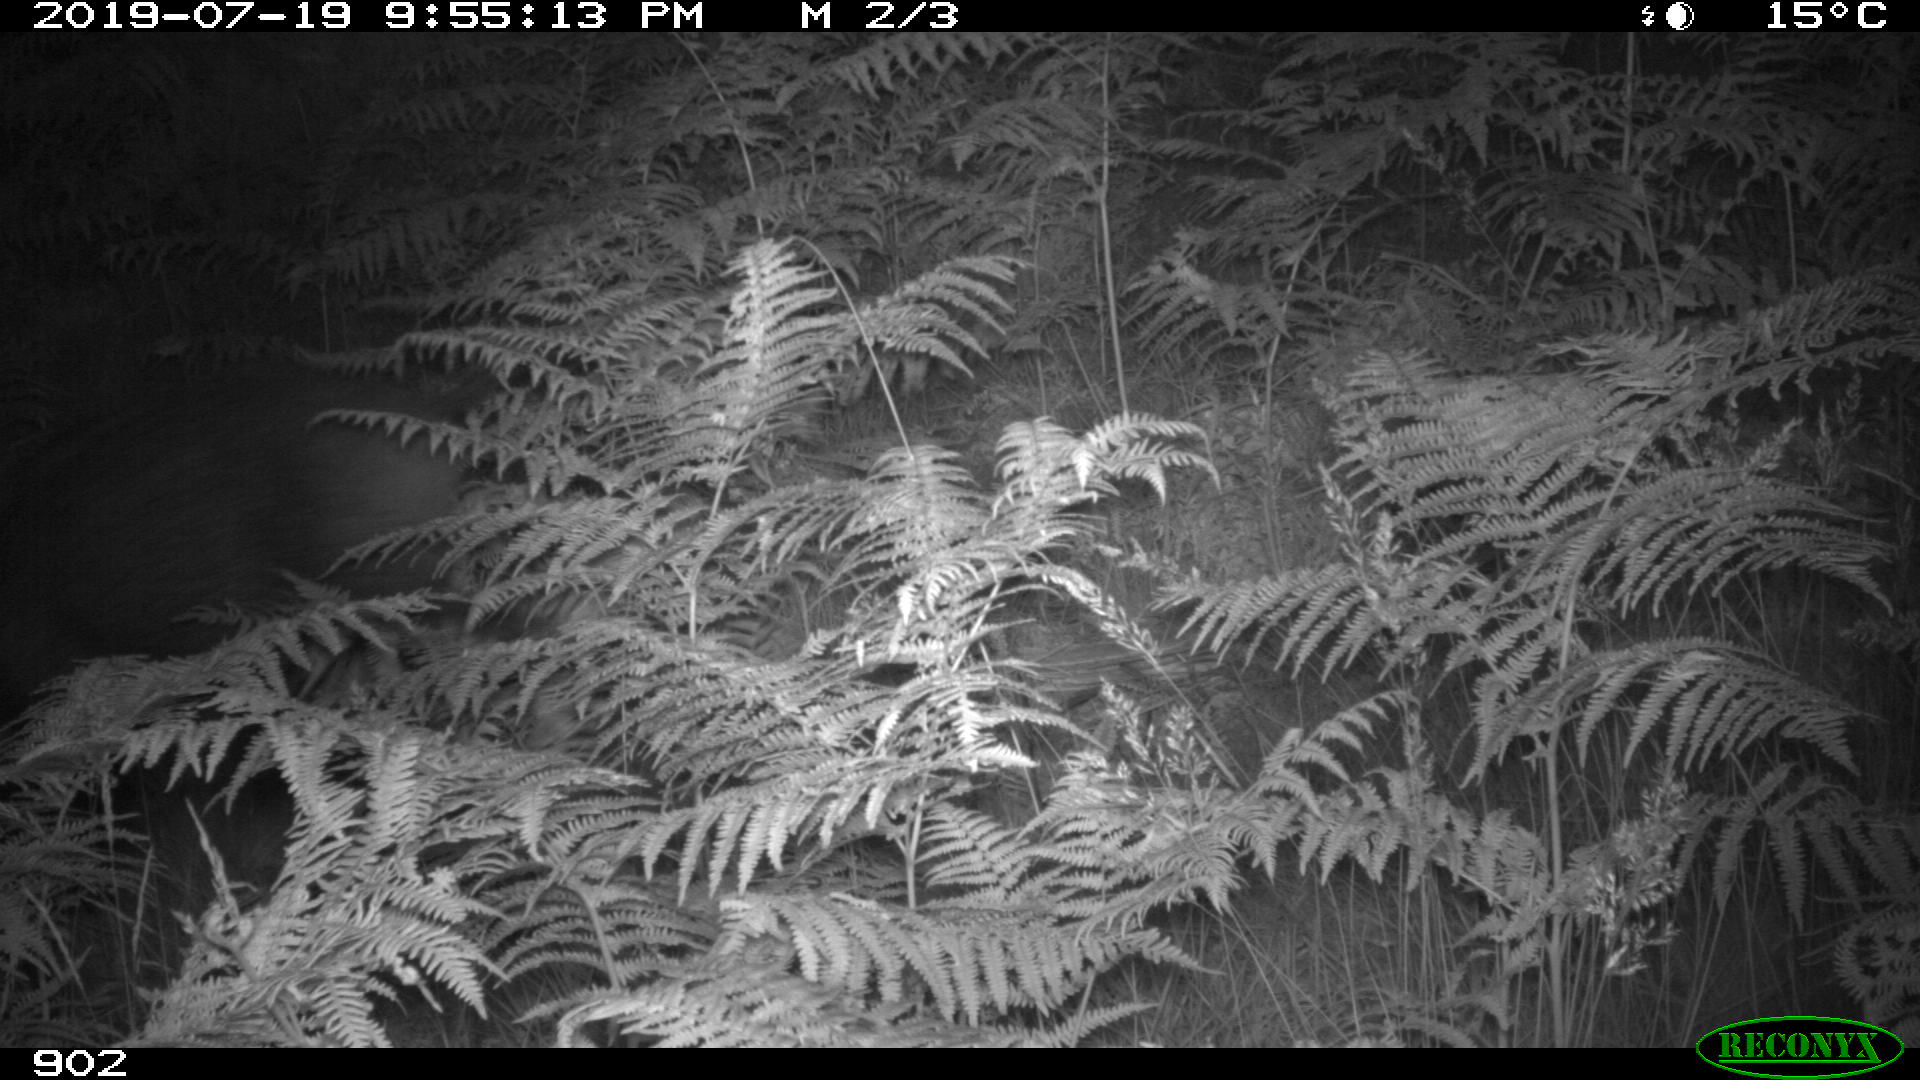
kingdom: Animalia
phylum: Chordata
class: Mammalia
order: Artiodactyla
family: Suidae
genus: Sus
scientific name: Sus scrofa
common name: Wild boar
